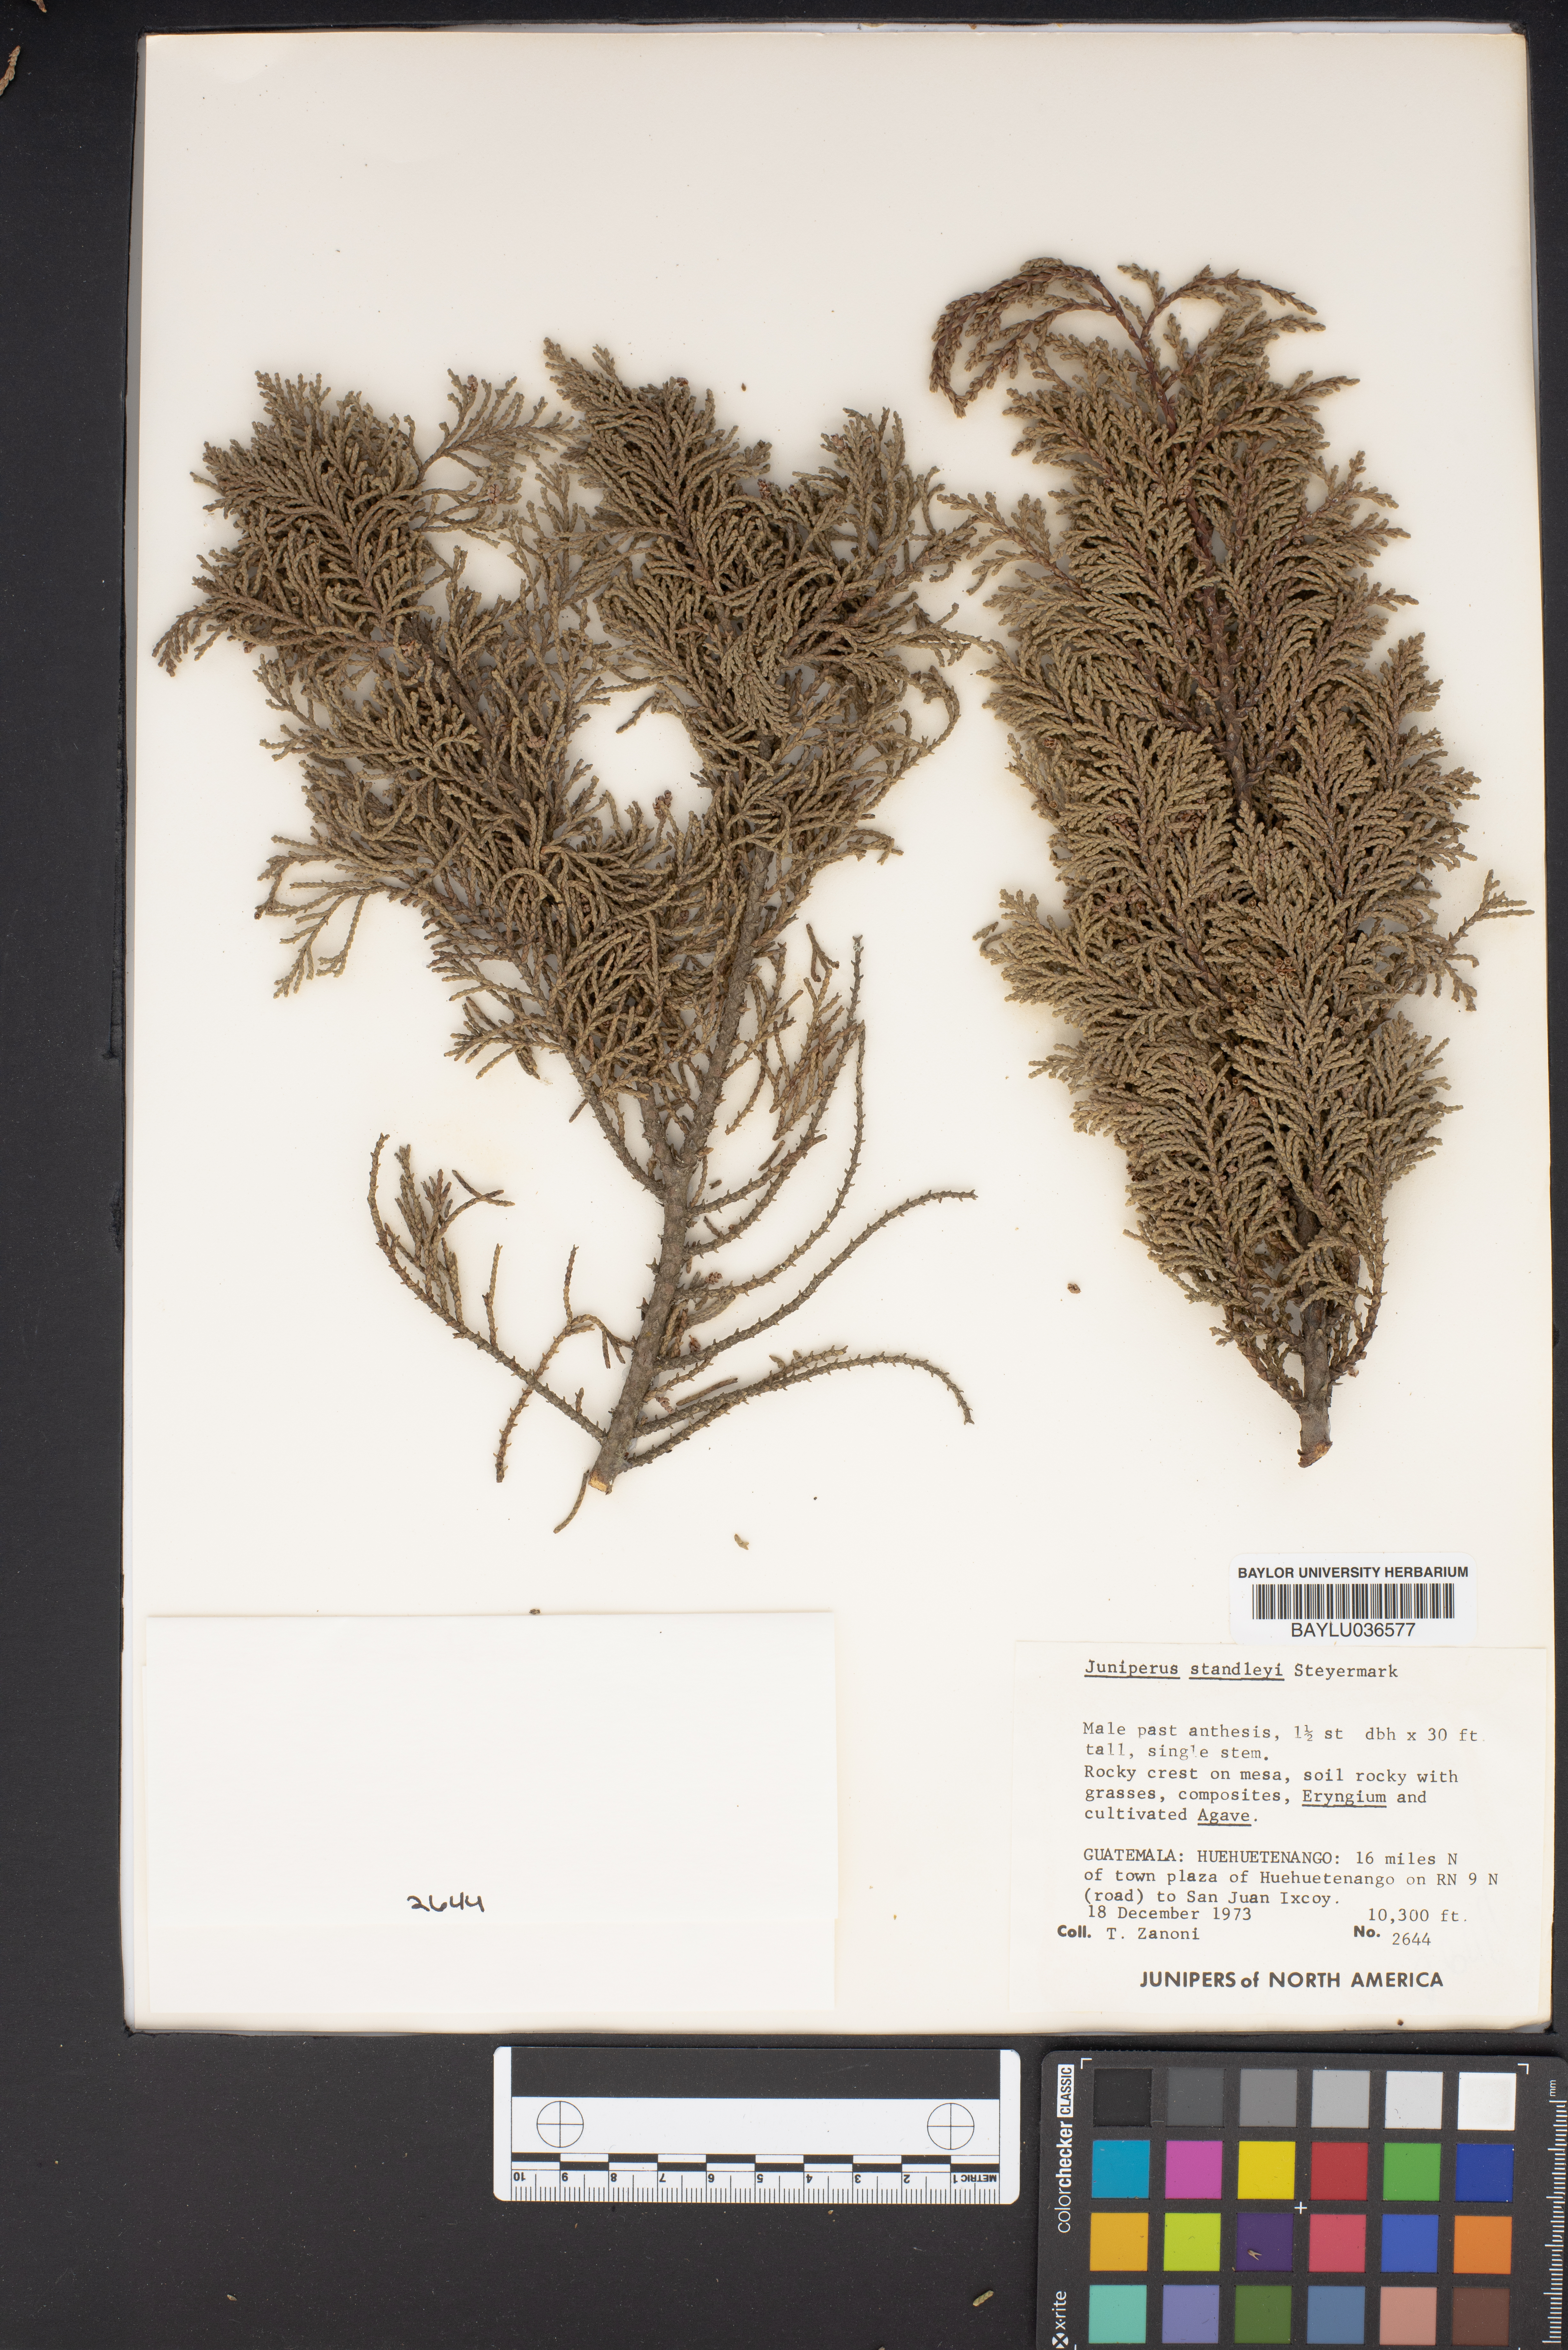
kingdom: Plantae
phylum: Tracheophyta
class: Pinopsida
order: Pinales
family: Cupressaceae
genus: Juniperus
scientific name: Juniperus standleyi
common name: Standley juniper
